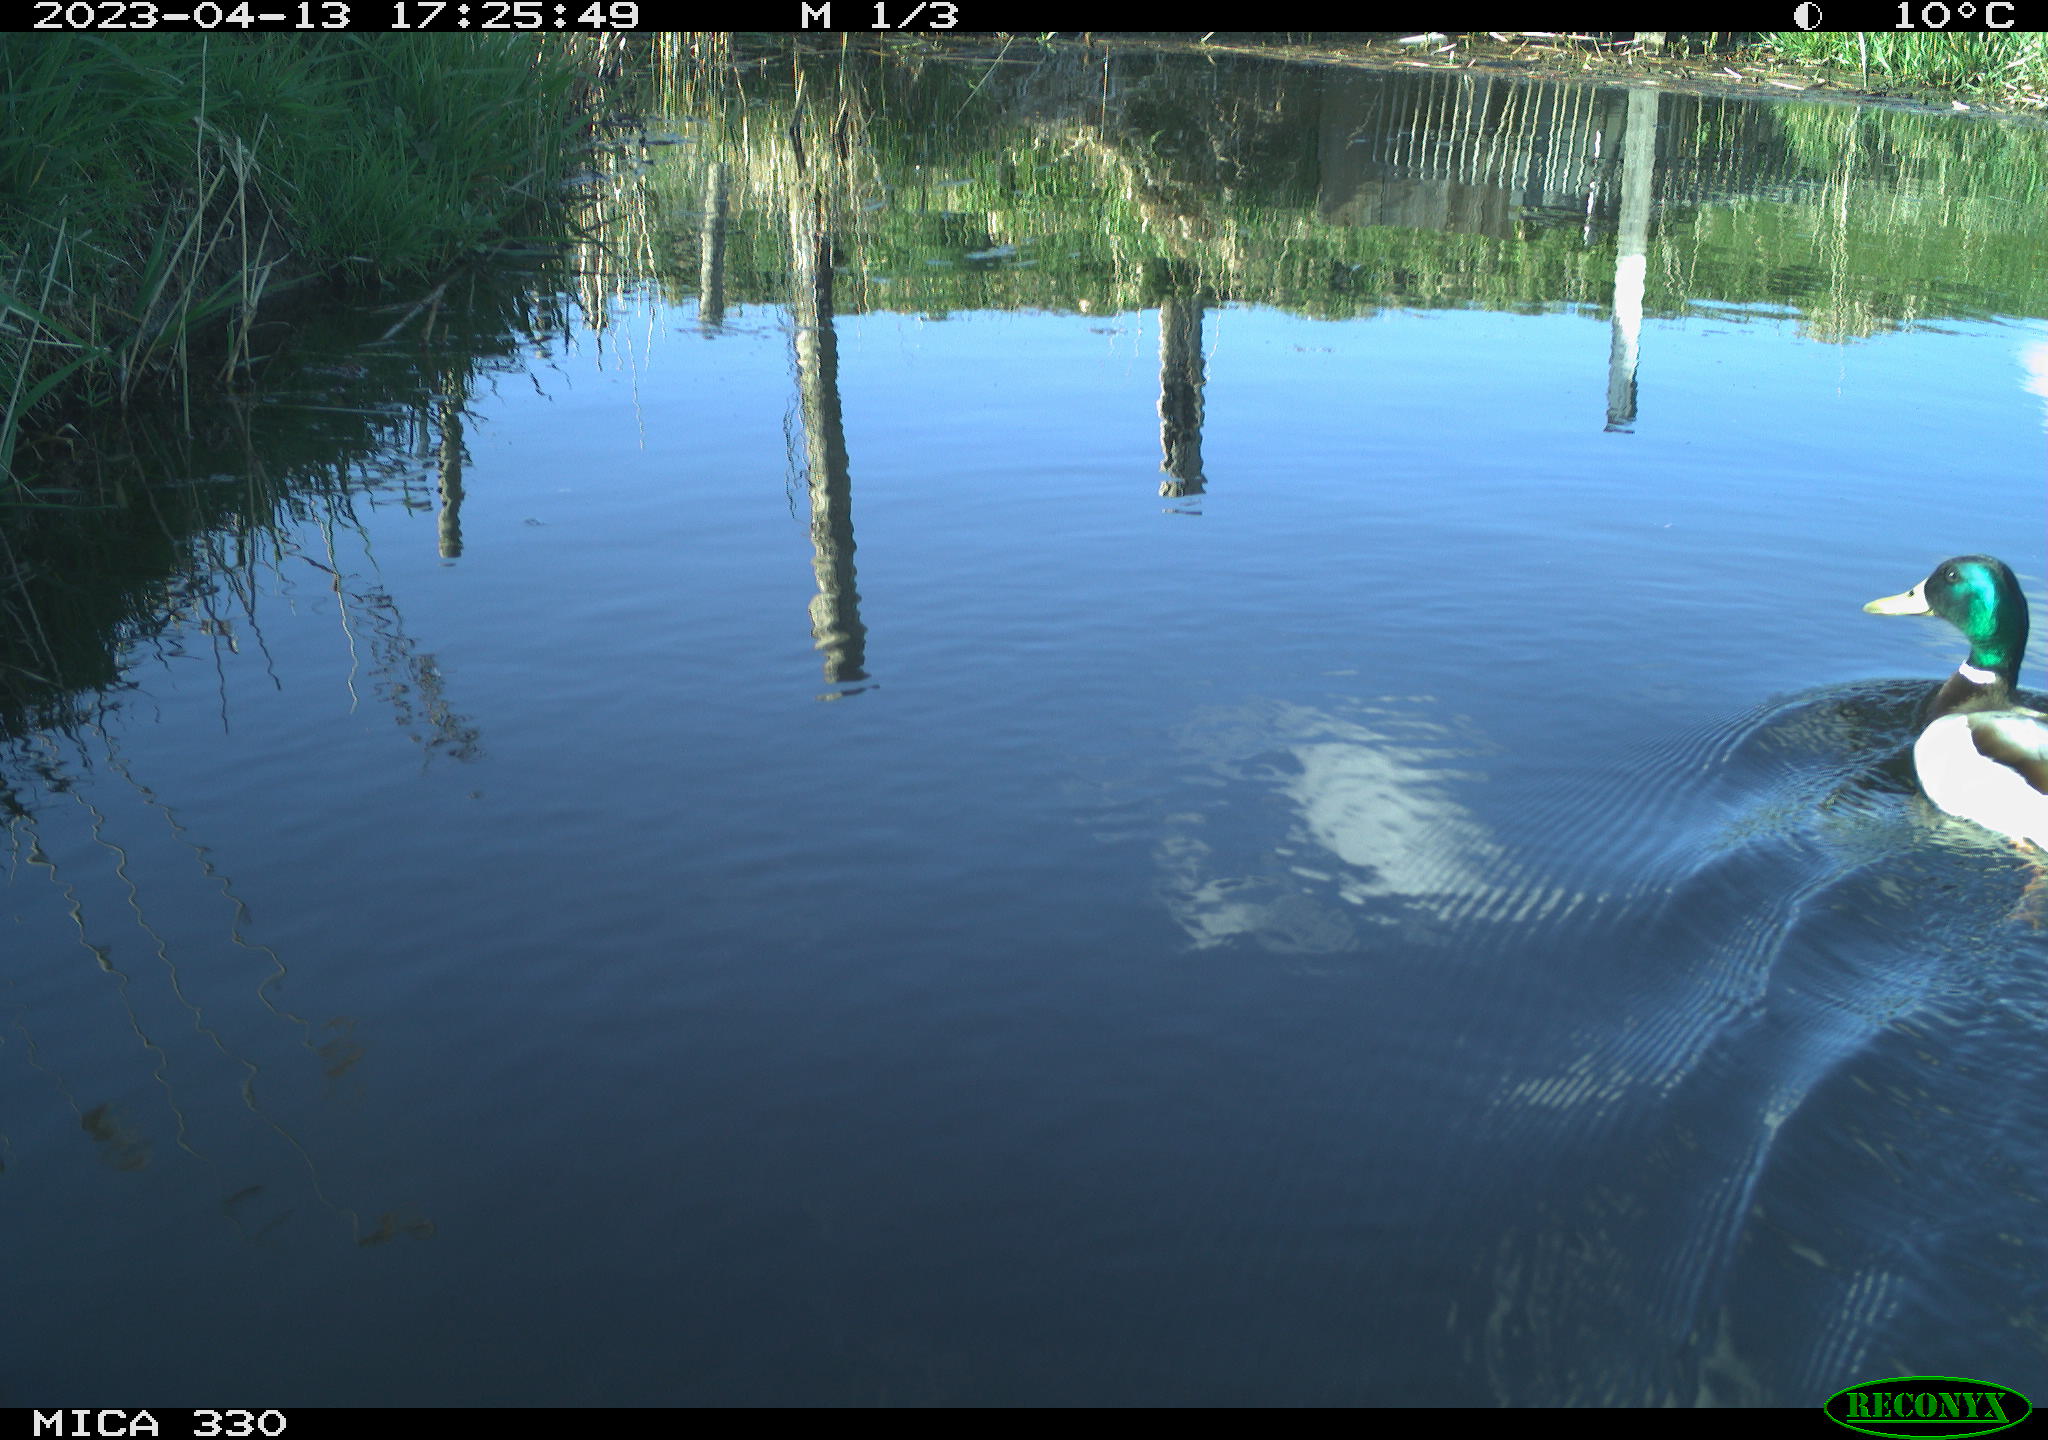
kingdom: Animalia
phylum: Chordata
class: Aves
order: Anseriformes
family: Anatidae
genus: Anas
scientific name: Anas
